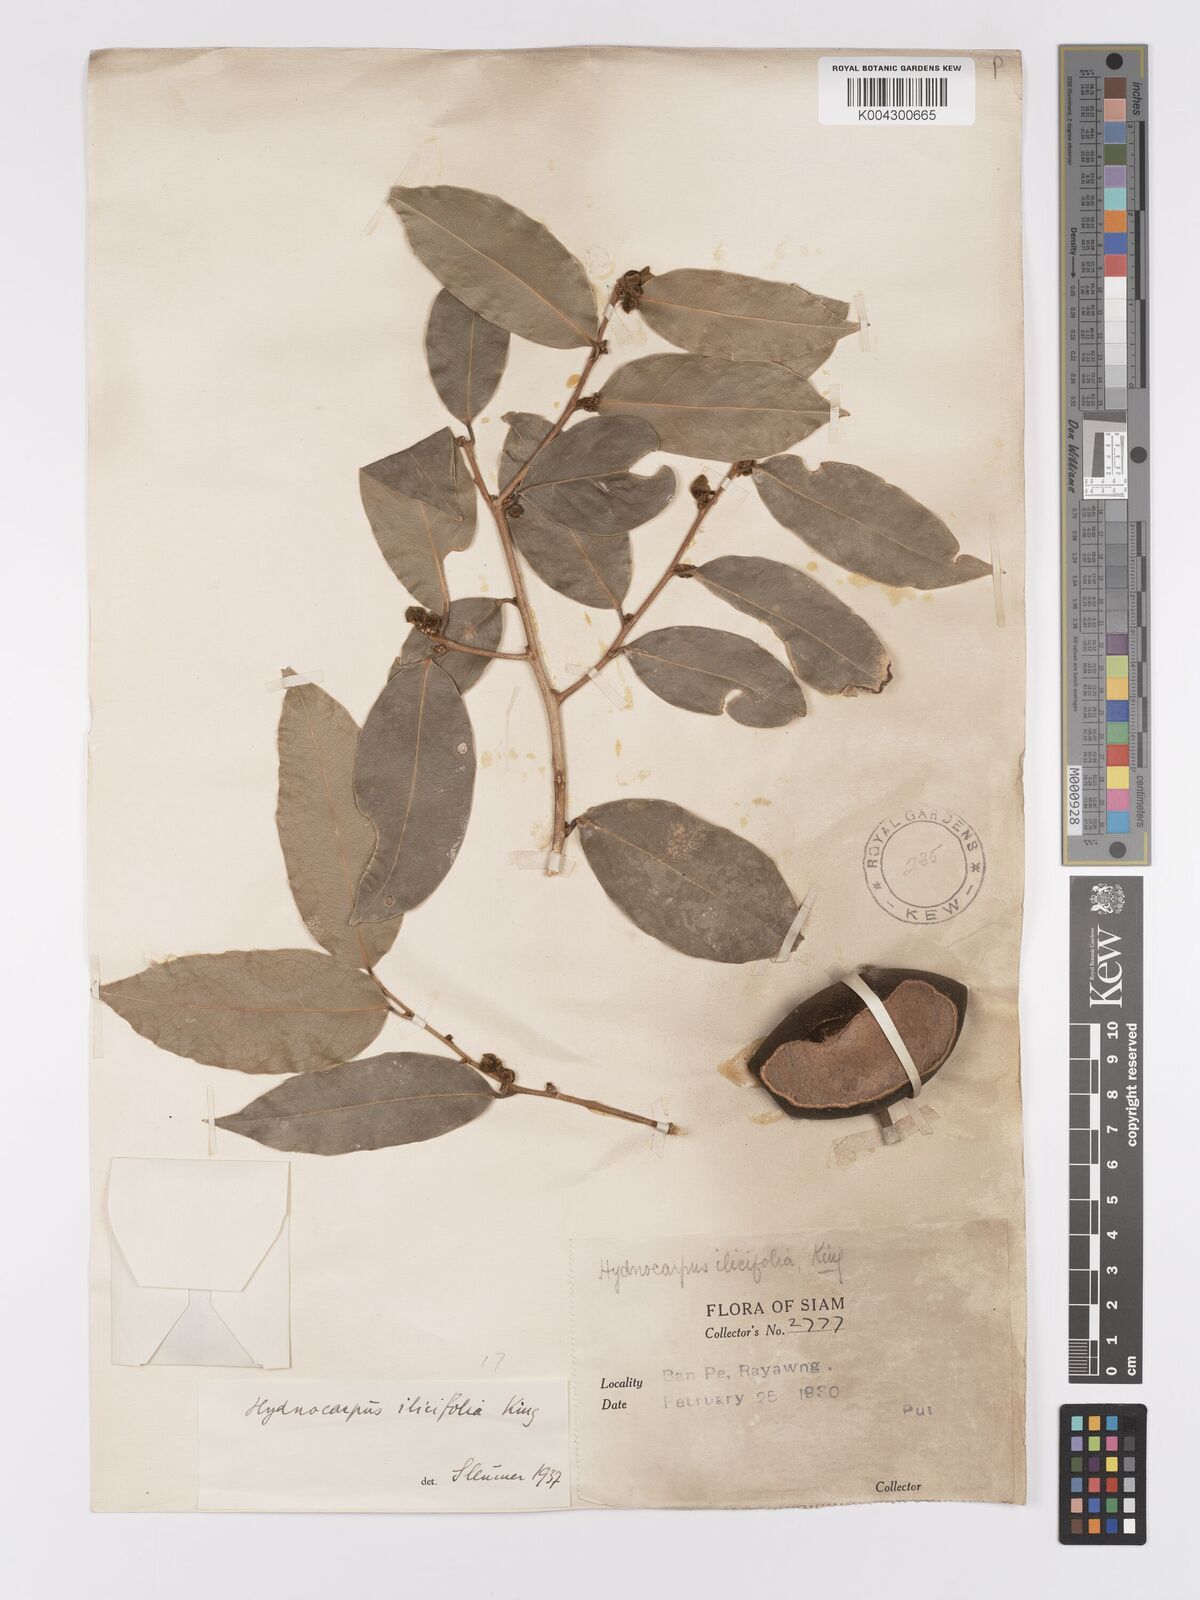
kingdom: Plantae
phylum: Tracheophyta
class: Magnoliopsida
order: Malpighiales
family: Achariaceae
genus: Hydnocarpus
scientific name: Hydnocarpus ilicifolius
